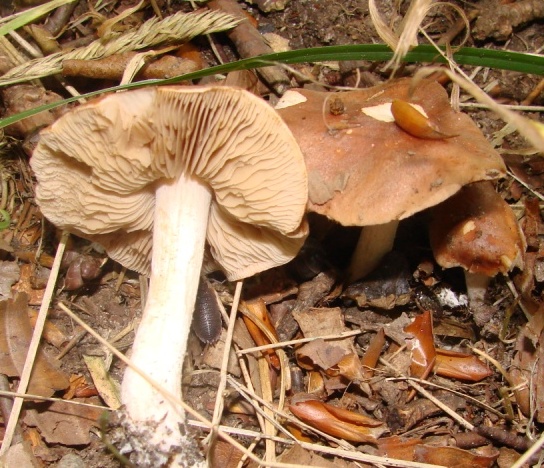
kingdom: Fungi
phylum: Basidiomycota
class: Agaricomycetes
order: Agaricales
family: Hymenogastraceae
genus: Hebeloma
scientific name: Hebeloma theobrominum
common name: rødbrun tåreblad
